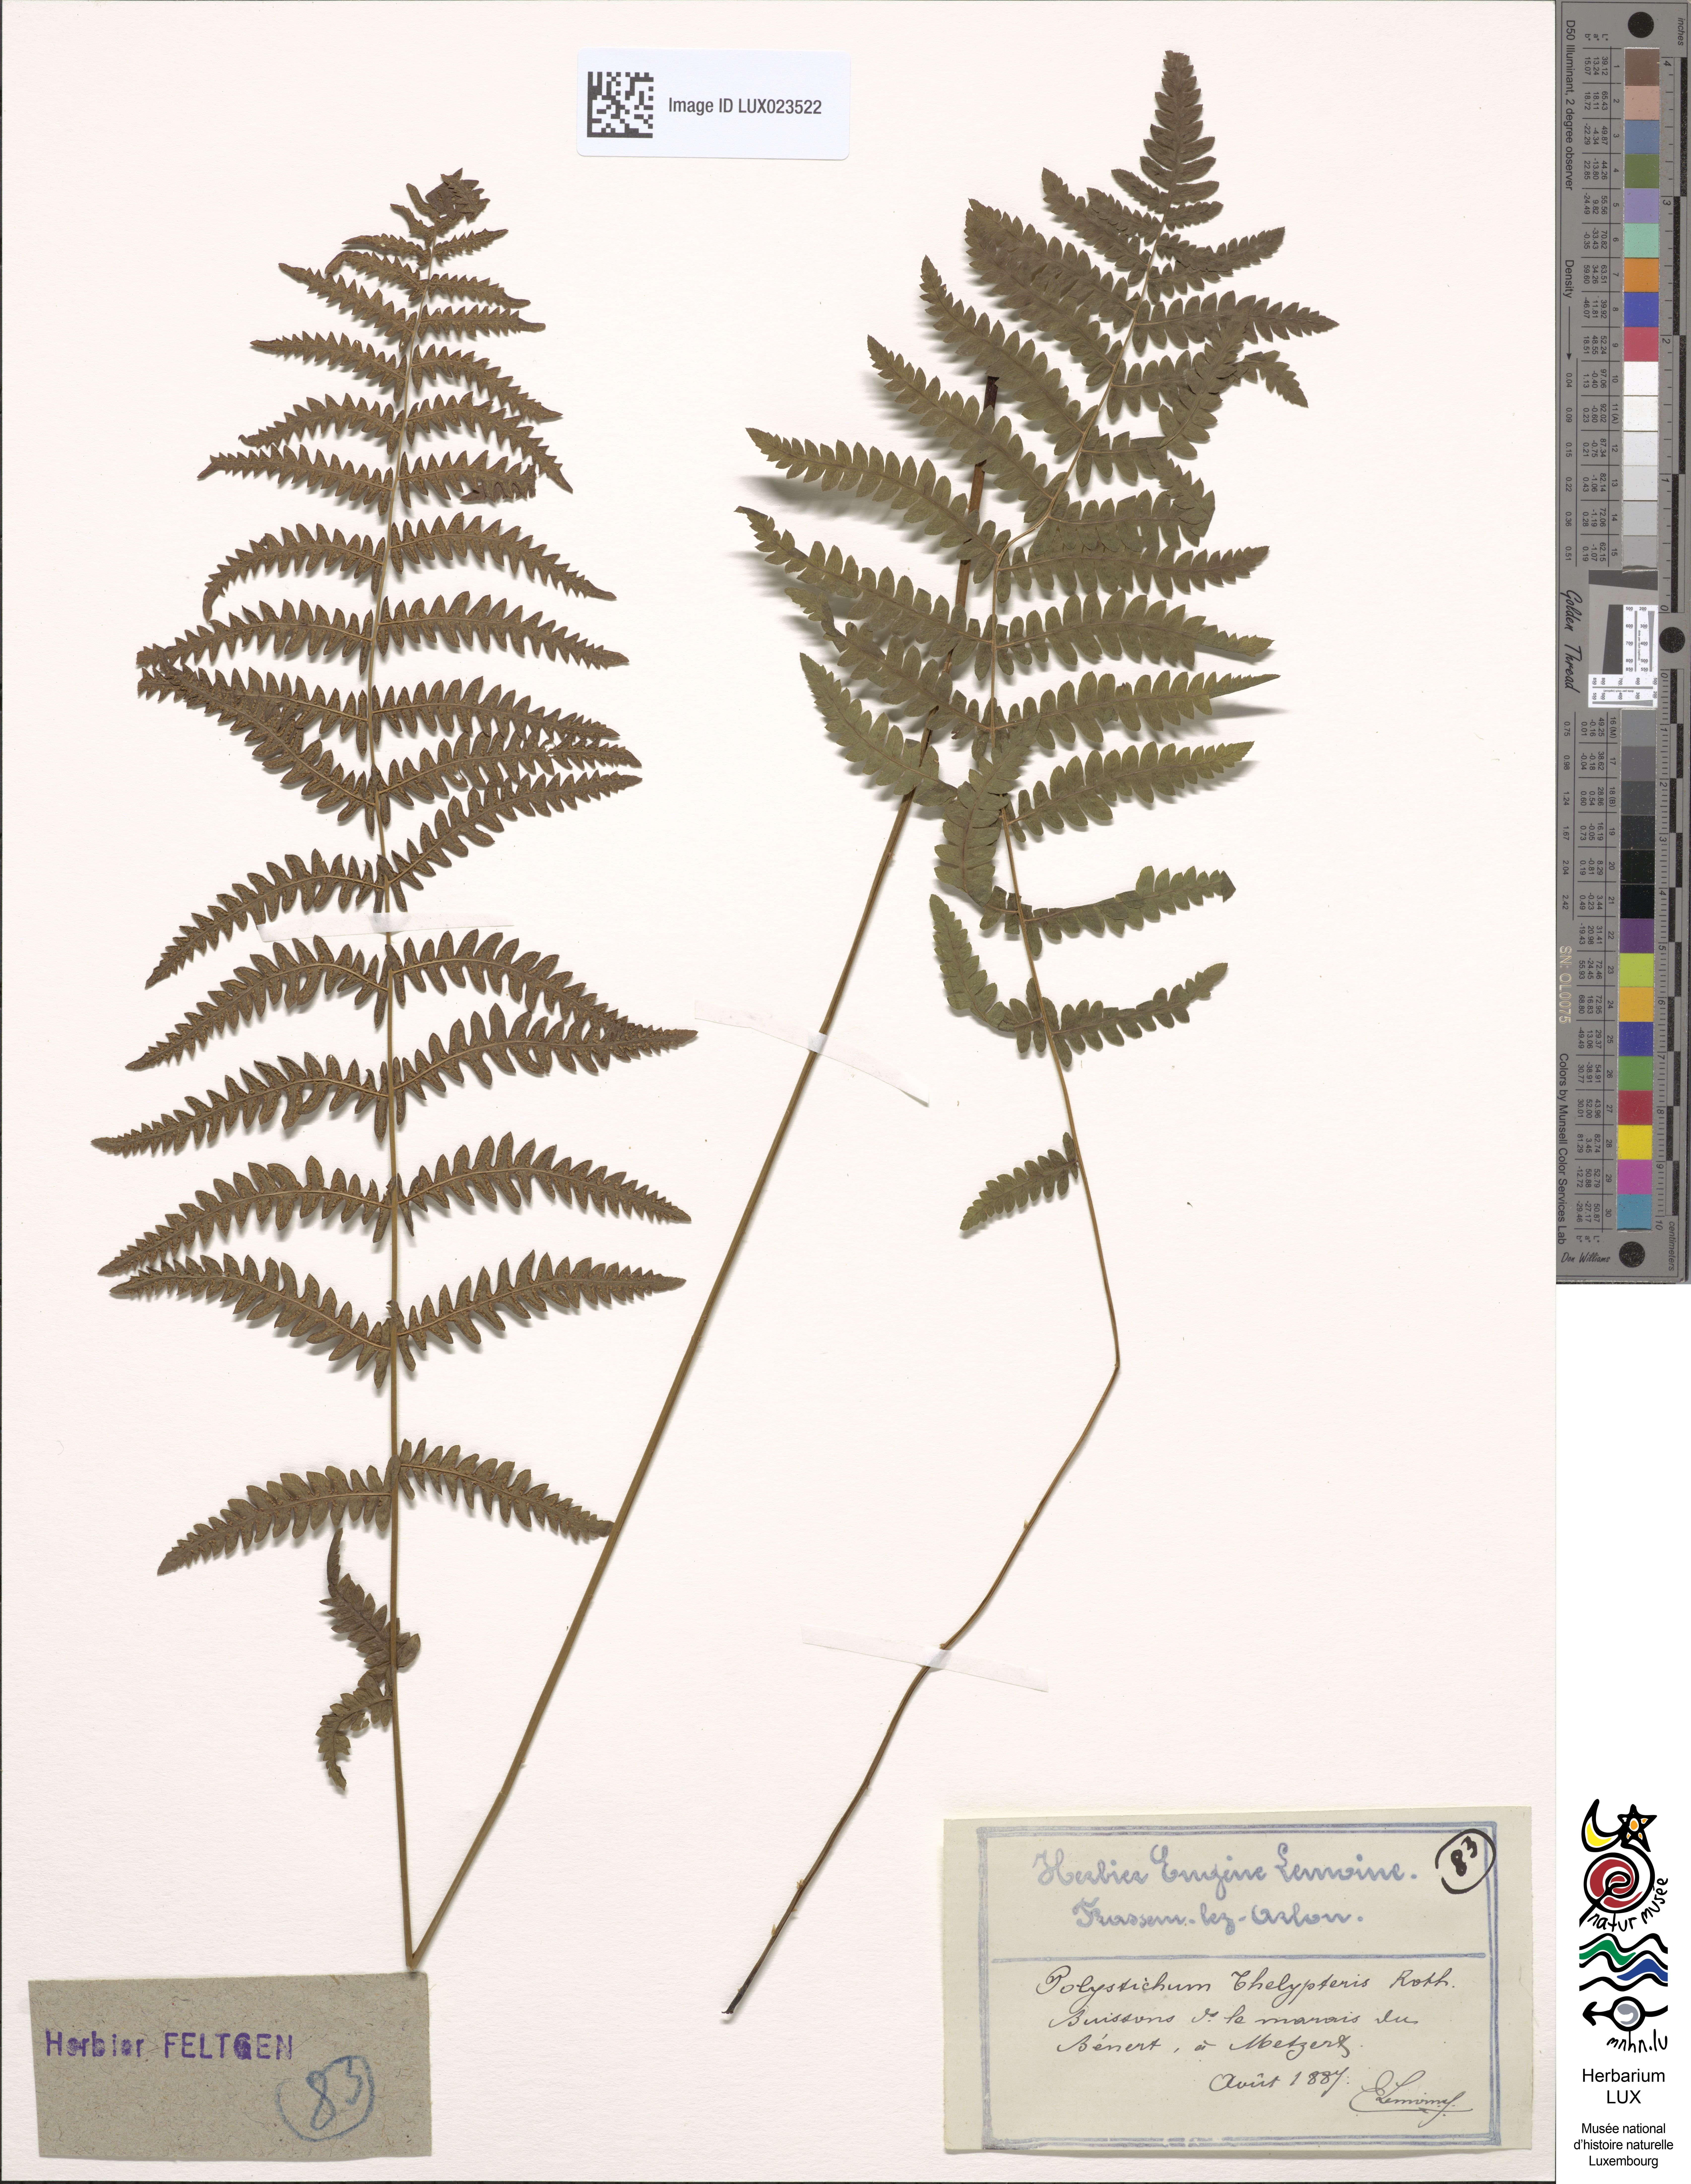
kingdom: Plantae
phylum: Tracheophyta
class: Polypodiopsida
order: Polypodiales
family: Thelypteridaceae
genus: Thelypteris
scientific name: Thelypteris palustris
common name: Marsh fern
